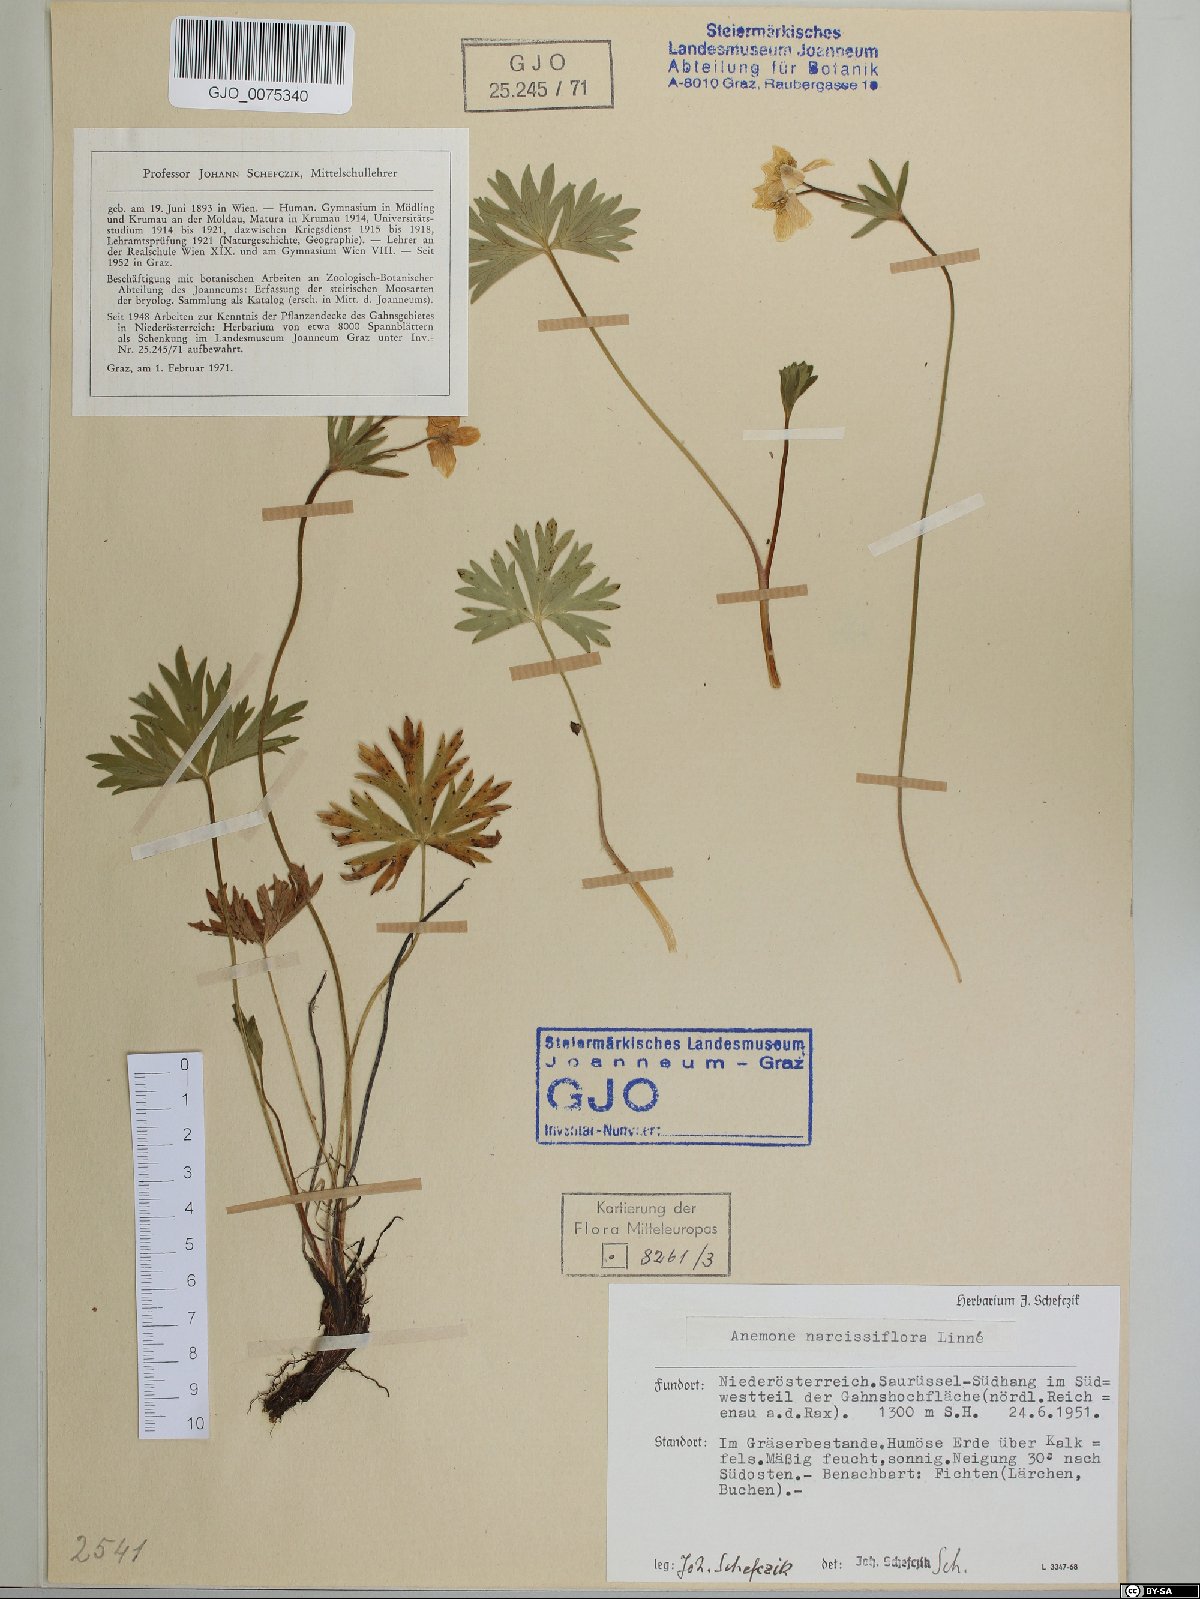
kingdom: Plantae
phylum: Tracheophyta
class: Magnoliopsida
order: Ranunculales
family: Ranunculaceae
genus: Anemonastrum
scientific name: Anemonastrum narcissiflorum
